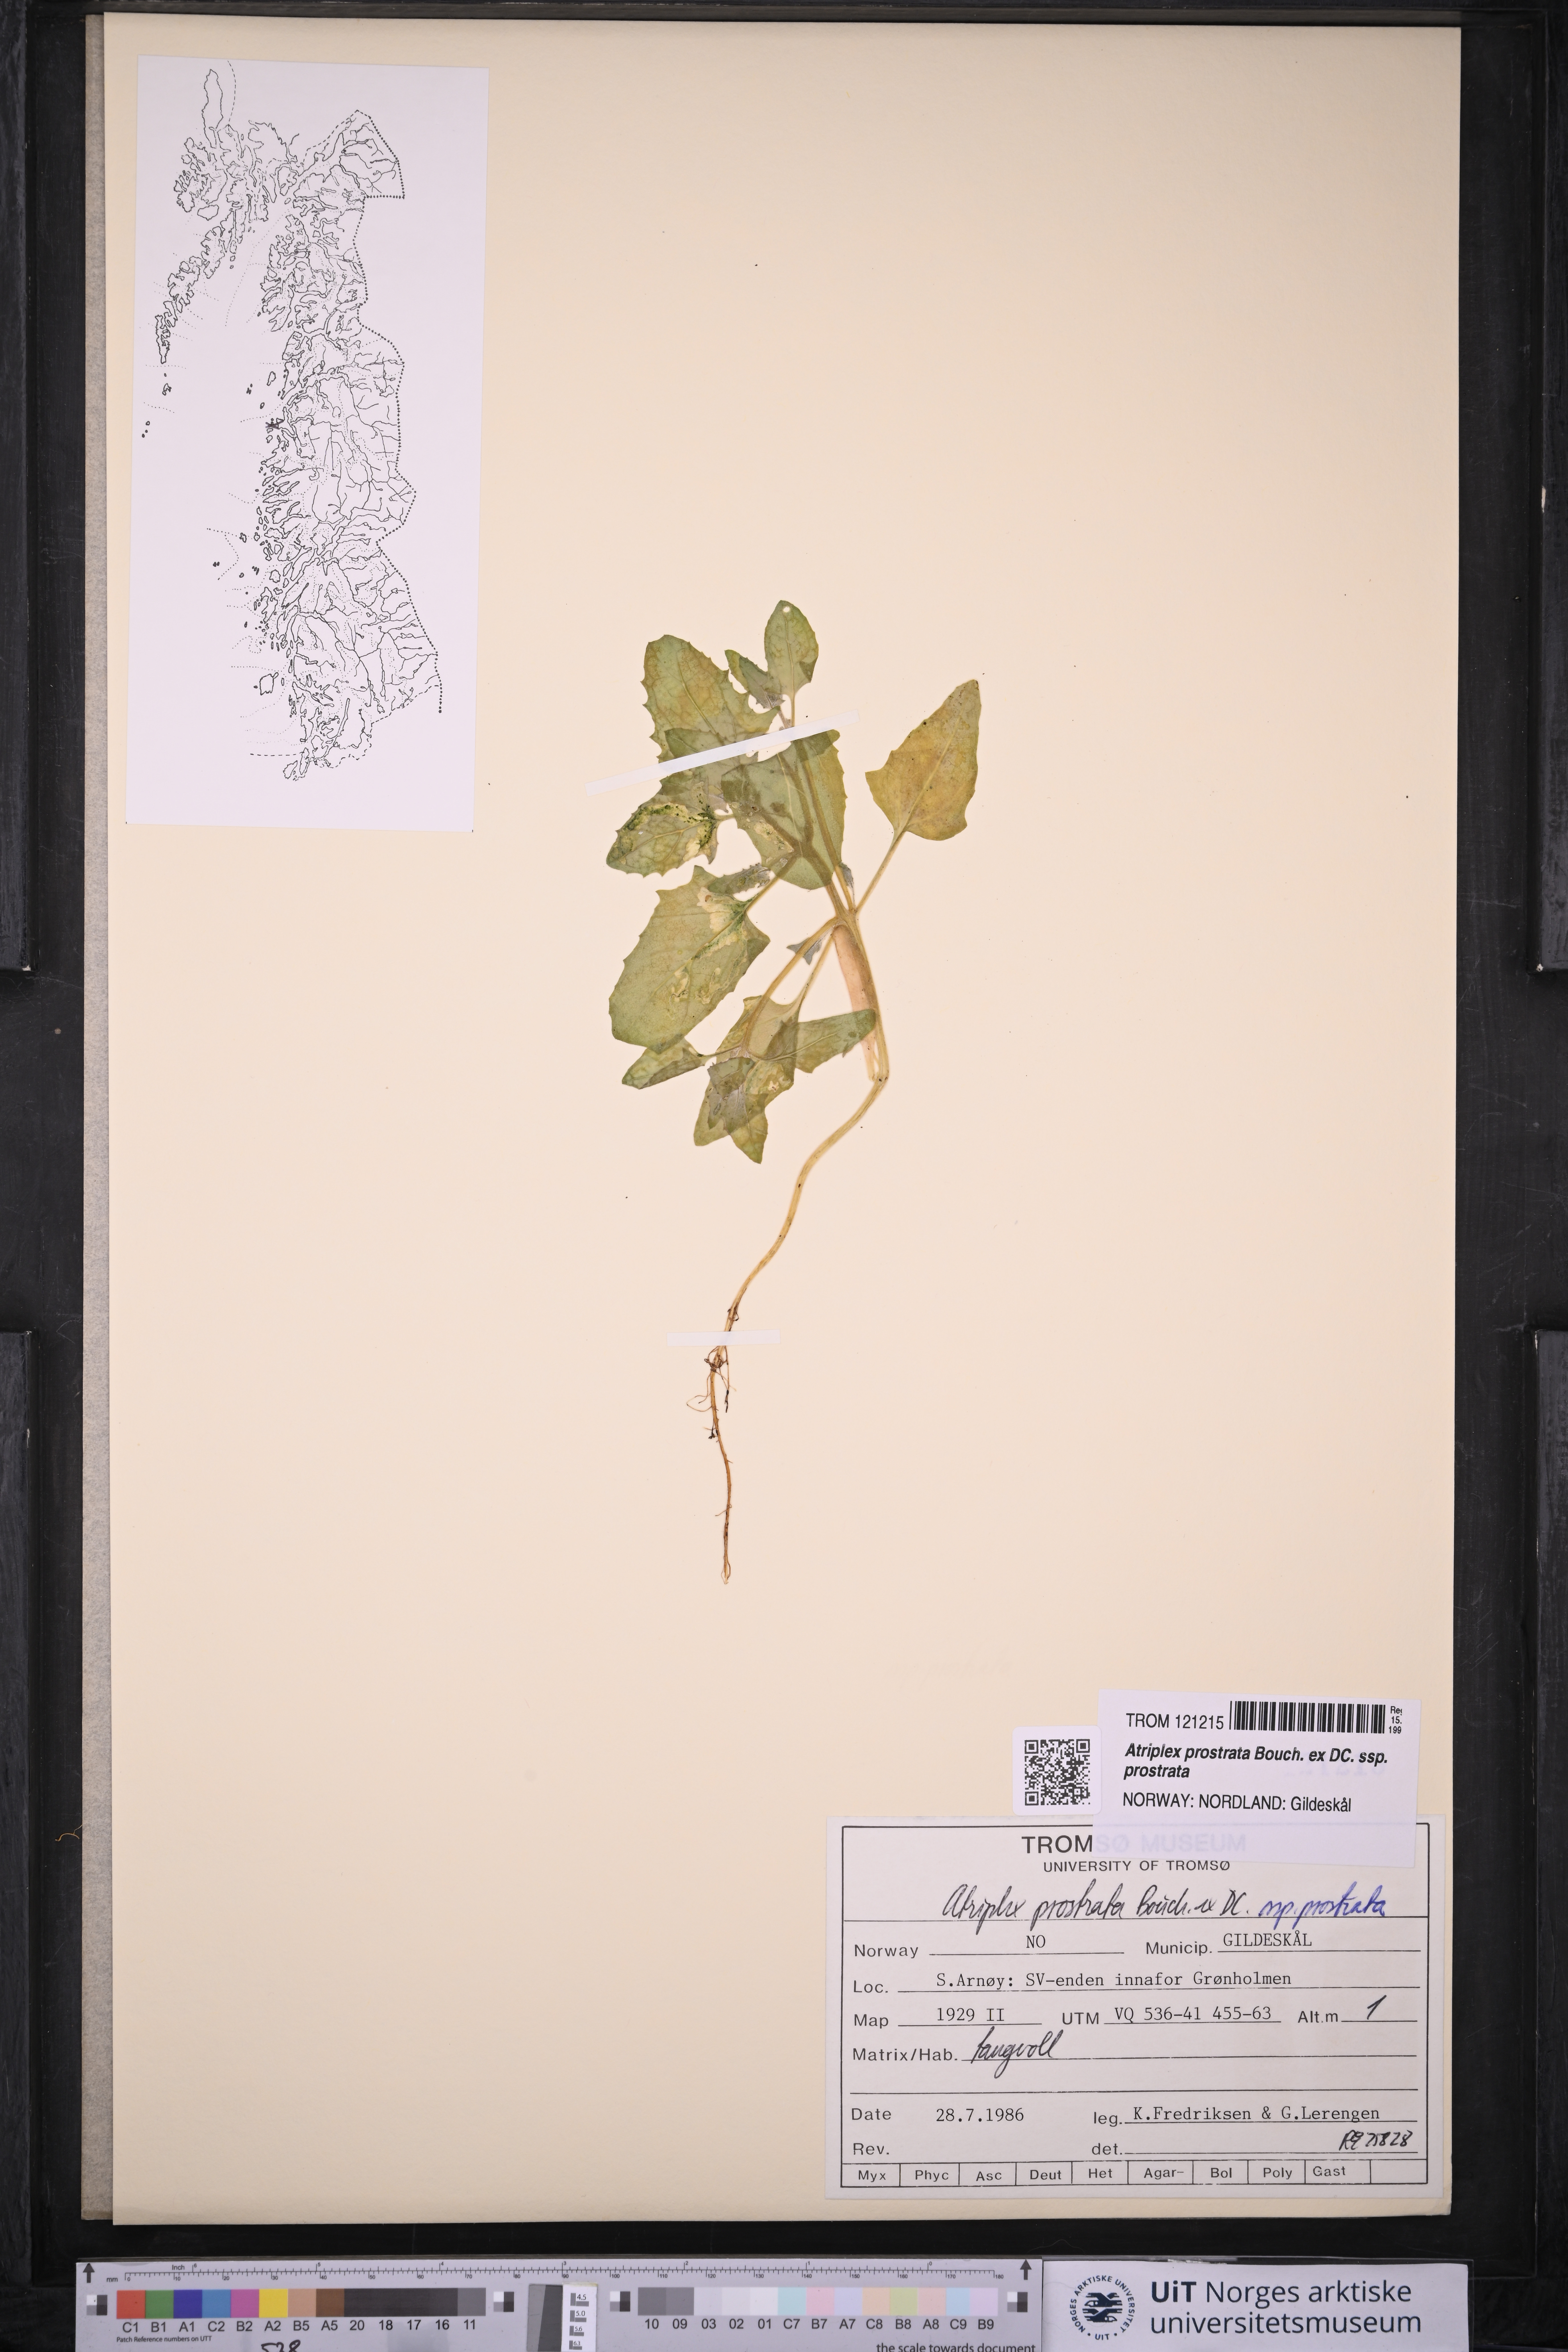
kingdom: Plantae
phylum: Tracheophyta
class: Magnoliopsida
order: Caryophyllales
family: Amaranthaceae
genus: Atriplex
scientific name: Atriplex prostrata
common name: Spear-leaved orache
